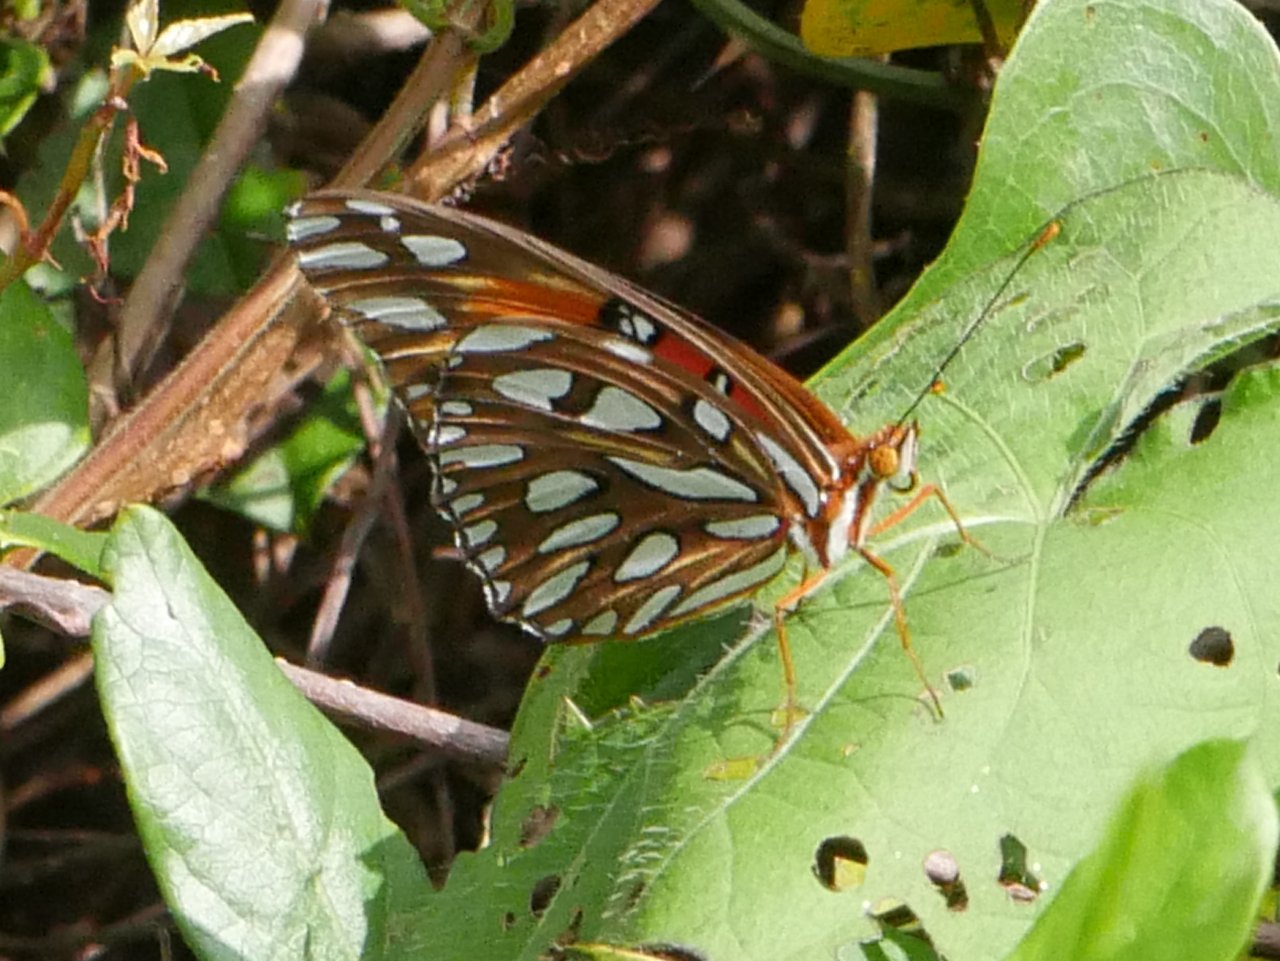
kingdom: Animalia
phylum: Arthropoda
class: Insecta
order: Lepidoptera
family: Nymphalidae
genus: Dione
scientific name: Dione vanillae
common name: Gulf Fritillary
